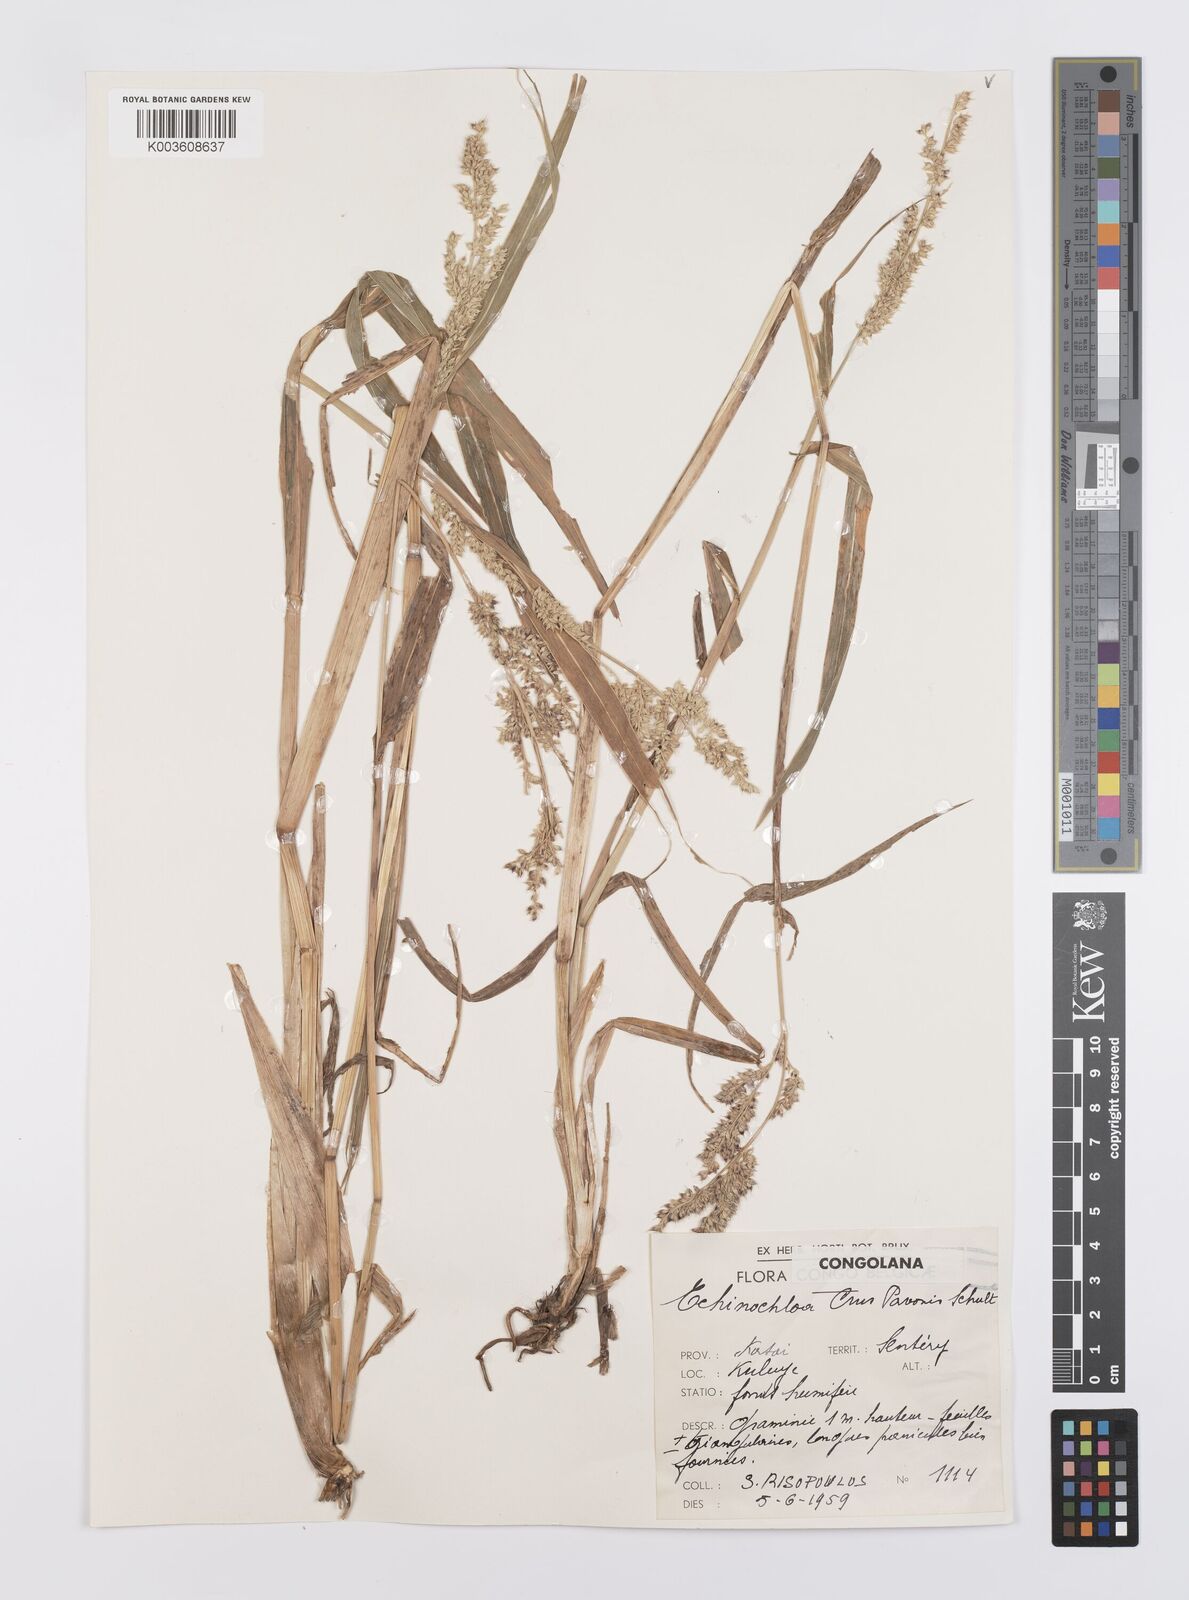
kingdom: Plantae
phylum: Tracheophyta
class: Liliopsida
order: Poales
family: Poaceae
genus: Echinochloa
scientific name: Echinochloa crus-pavonis
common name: Gulf cockspur grass
